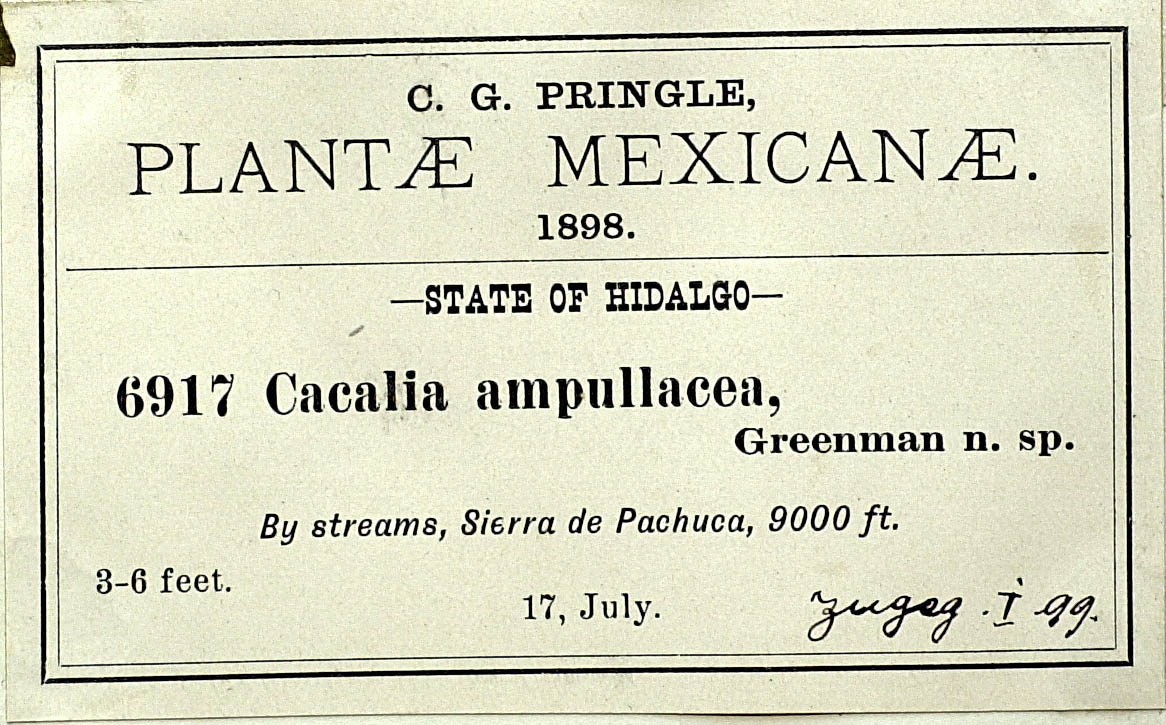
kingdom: Plantae
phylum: Tracheophyta
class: Magnoliopsida
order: Asterales
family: Asteraceae
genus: Psacalium
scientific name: Psacalium Odontotrichum ampullaceum
